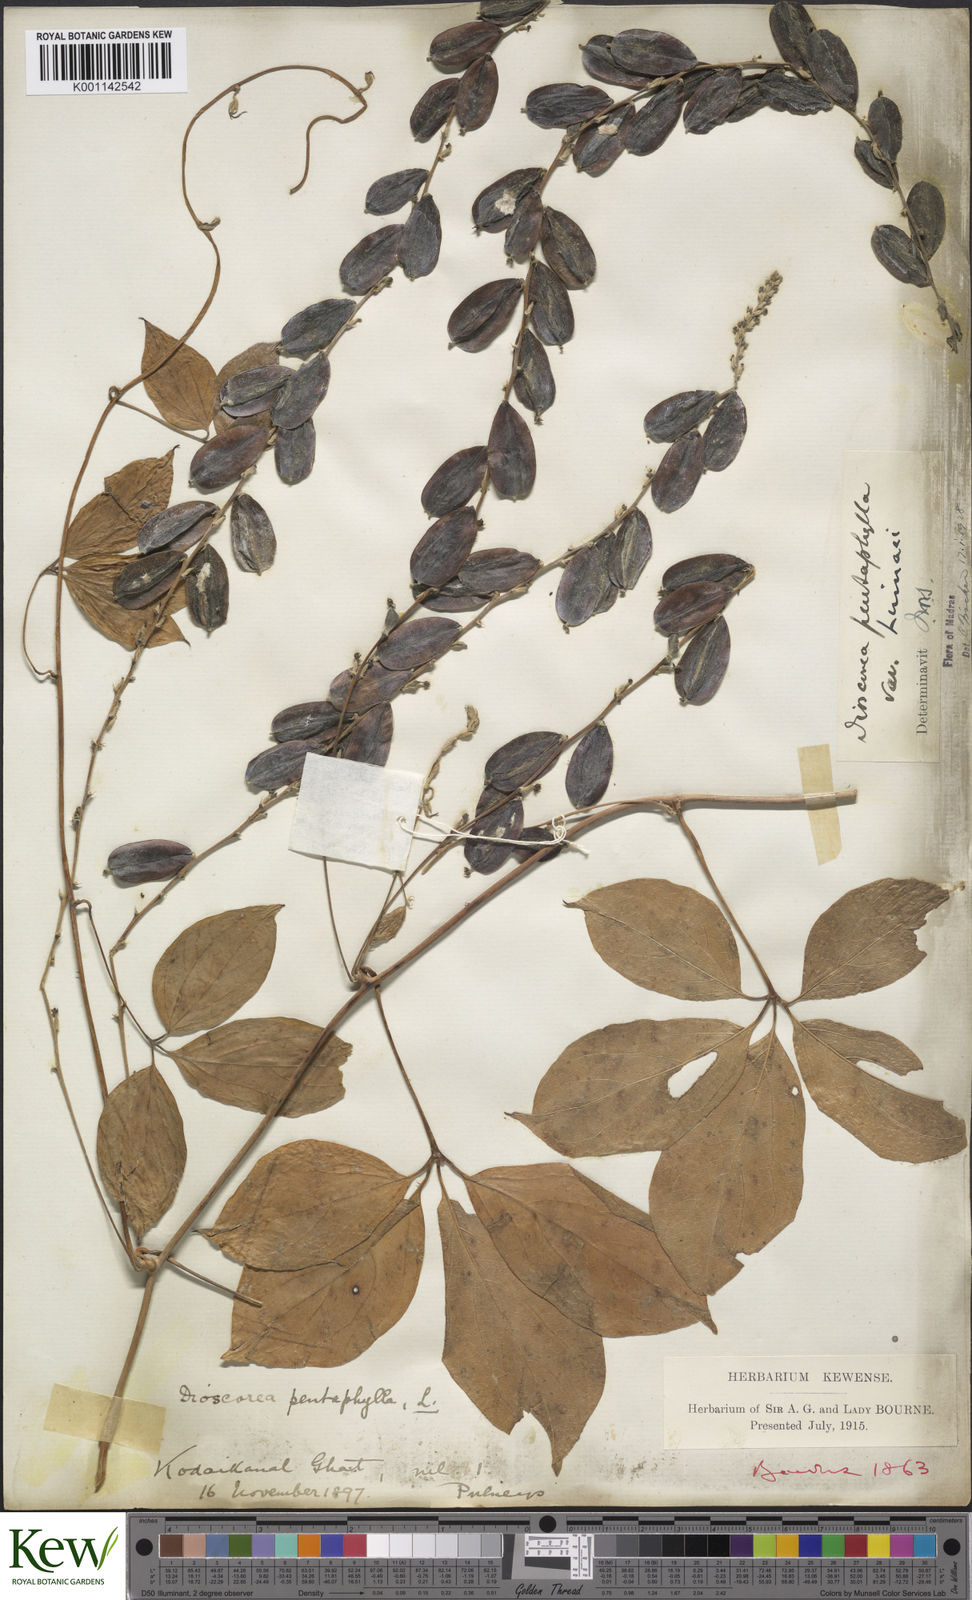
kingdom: Plantae
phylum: Tracheophyta
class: Liliopsida
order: Dioscoreales
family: Dioscoreaceae
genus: Dioscorea
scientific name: Dioscorea pentaphylla
